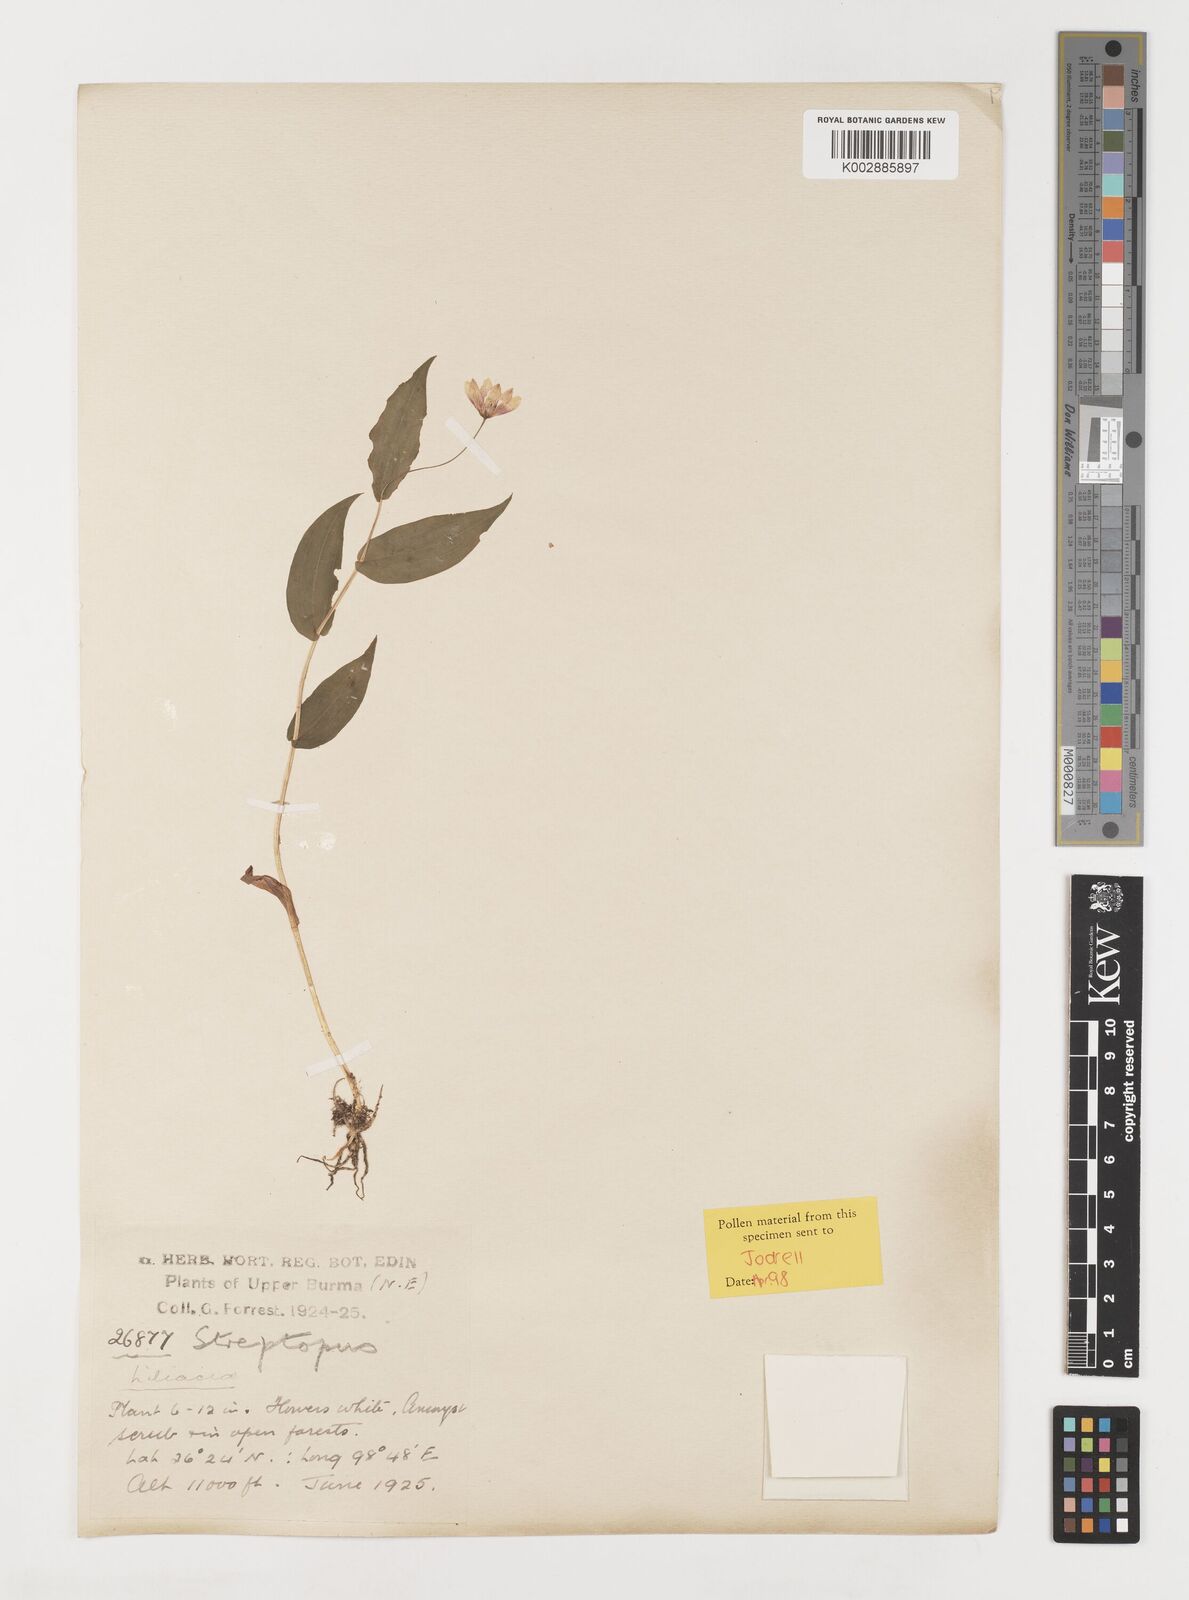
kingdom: Plantae
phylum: Tracheophyta
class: Liliopsida
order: Liliales
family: Liliaceae
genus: Streptopus
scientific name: Streptopus simplex
